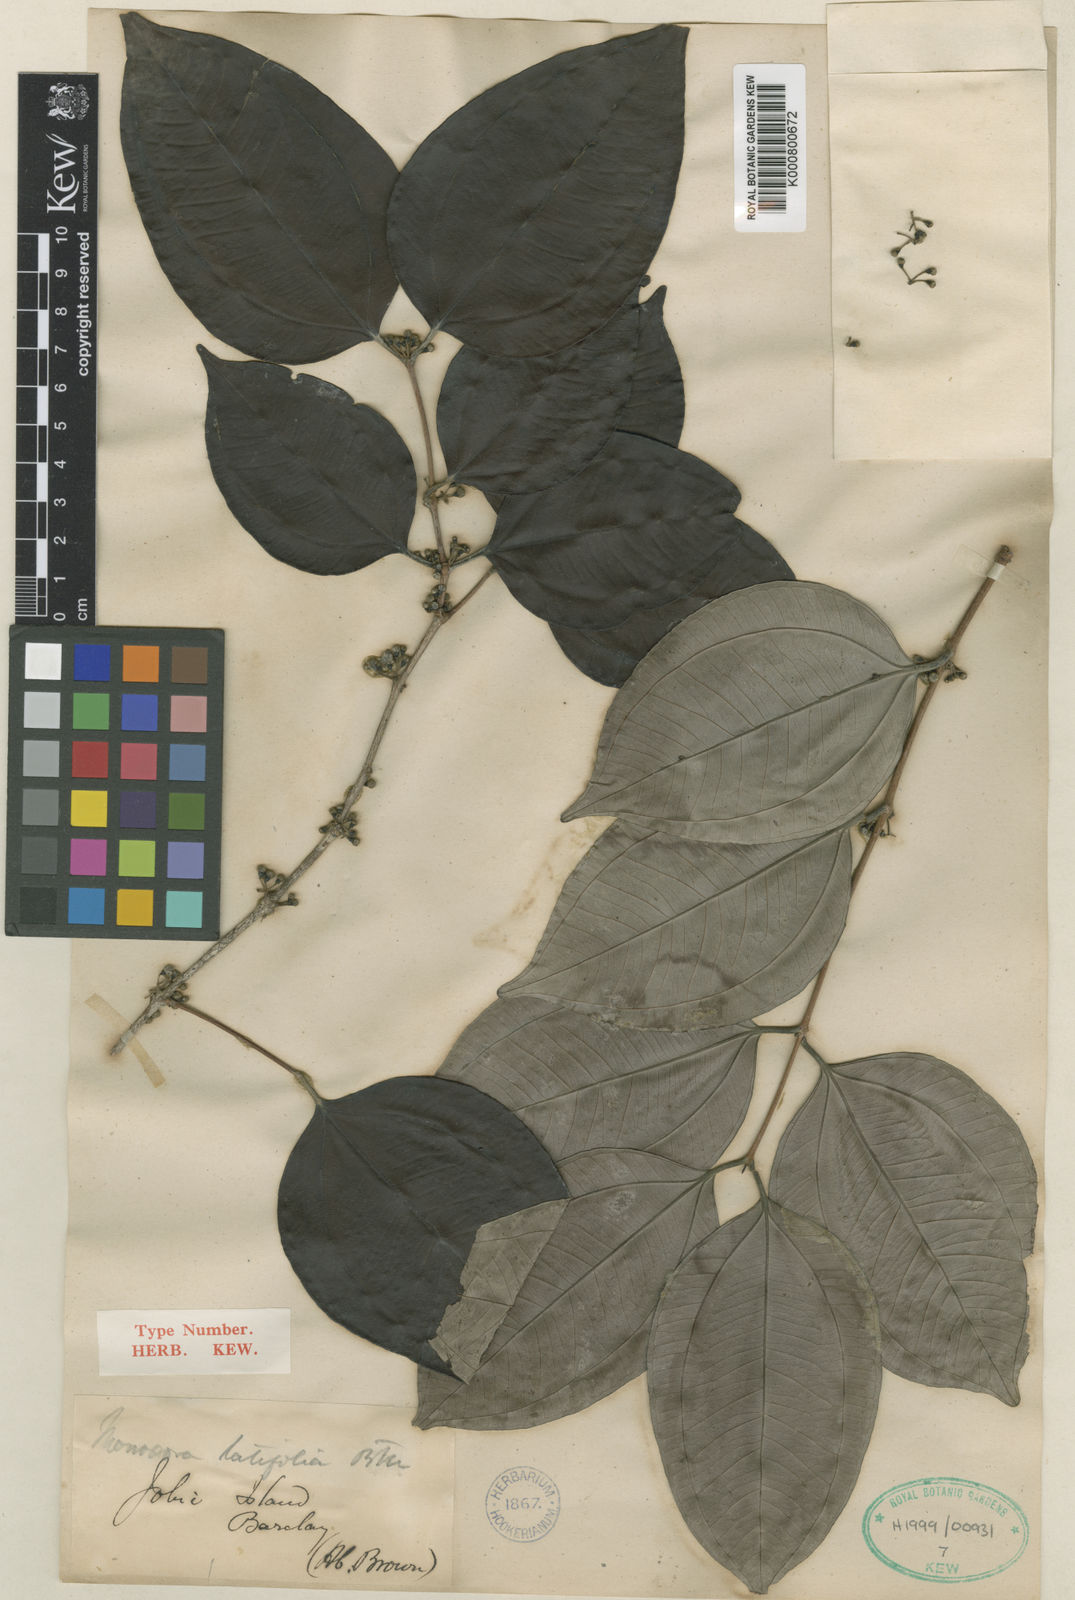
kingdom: Plantae
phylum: Tracheophyta
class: Magnoliopsida
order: Myrtales
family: Myrtaceae
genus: Rhodamnia
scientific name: Rhodamnia latifolia
